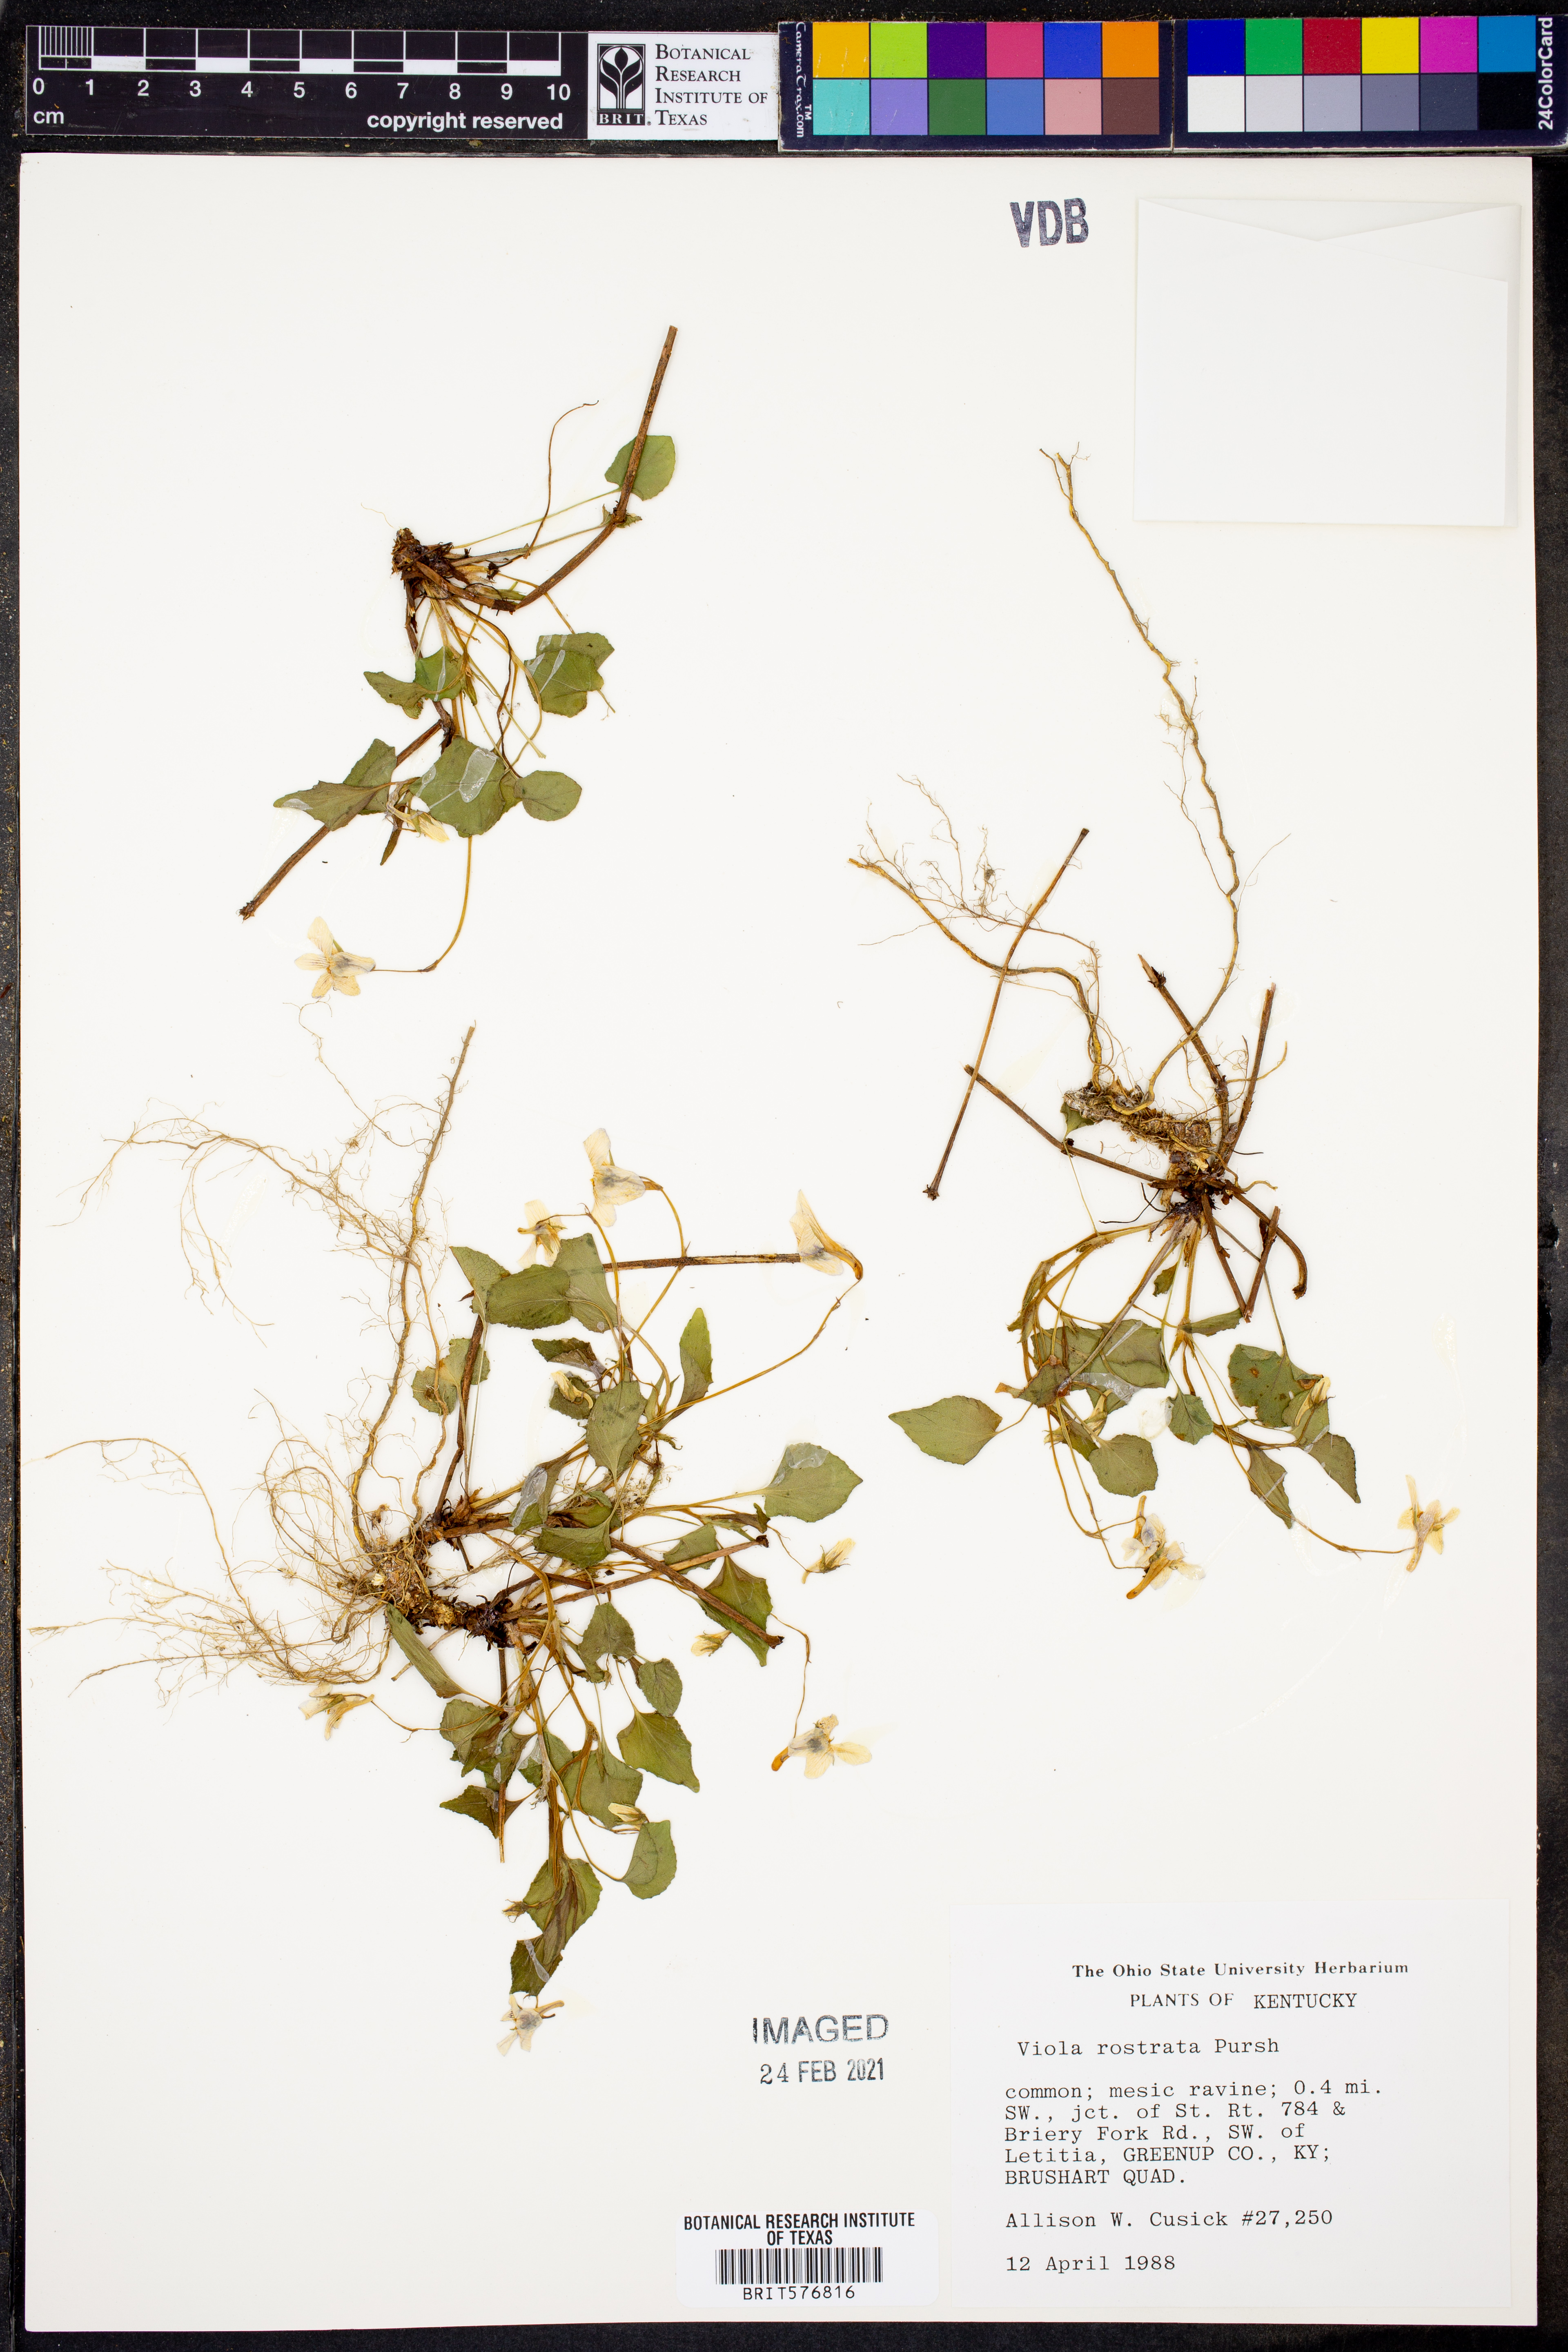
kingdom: Plantae
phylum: Tracheophyta
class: Magnoliopsida
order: Malpighiales
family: Violaceae
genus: Viola
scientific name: Viola rostrata
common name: Long-spur violet
